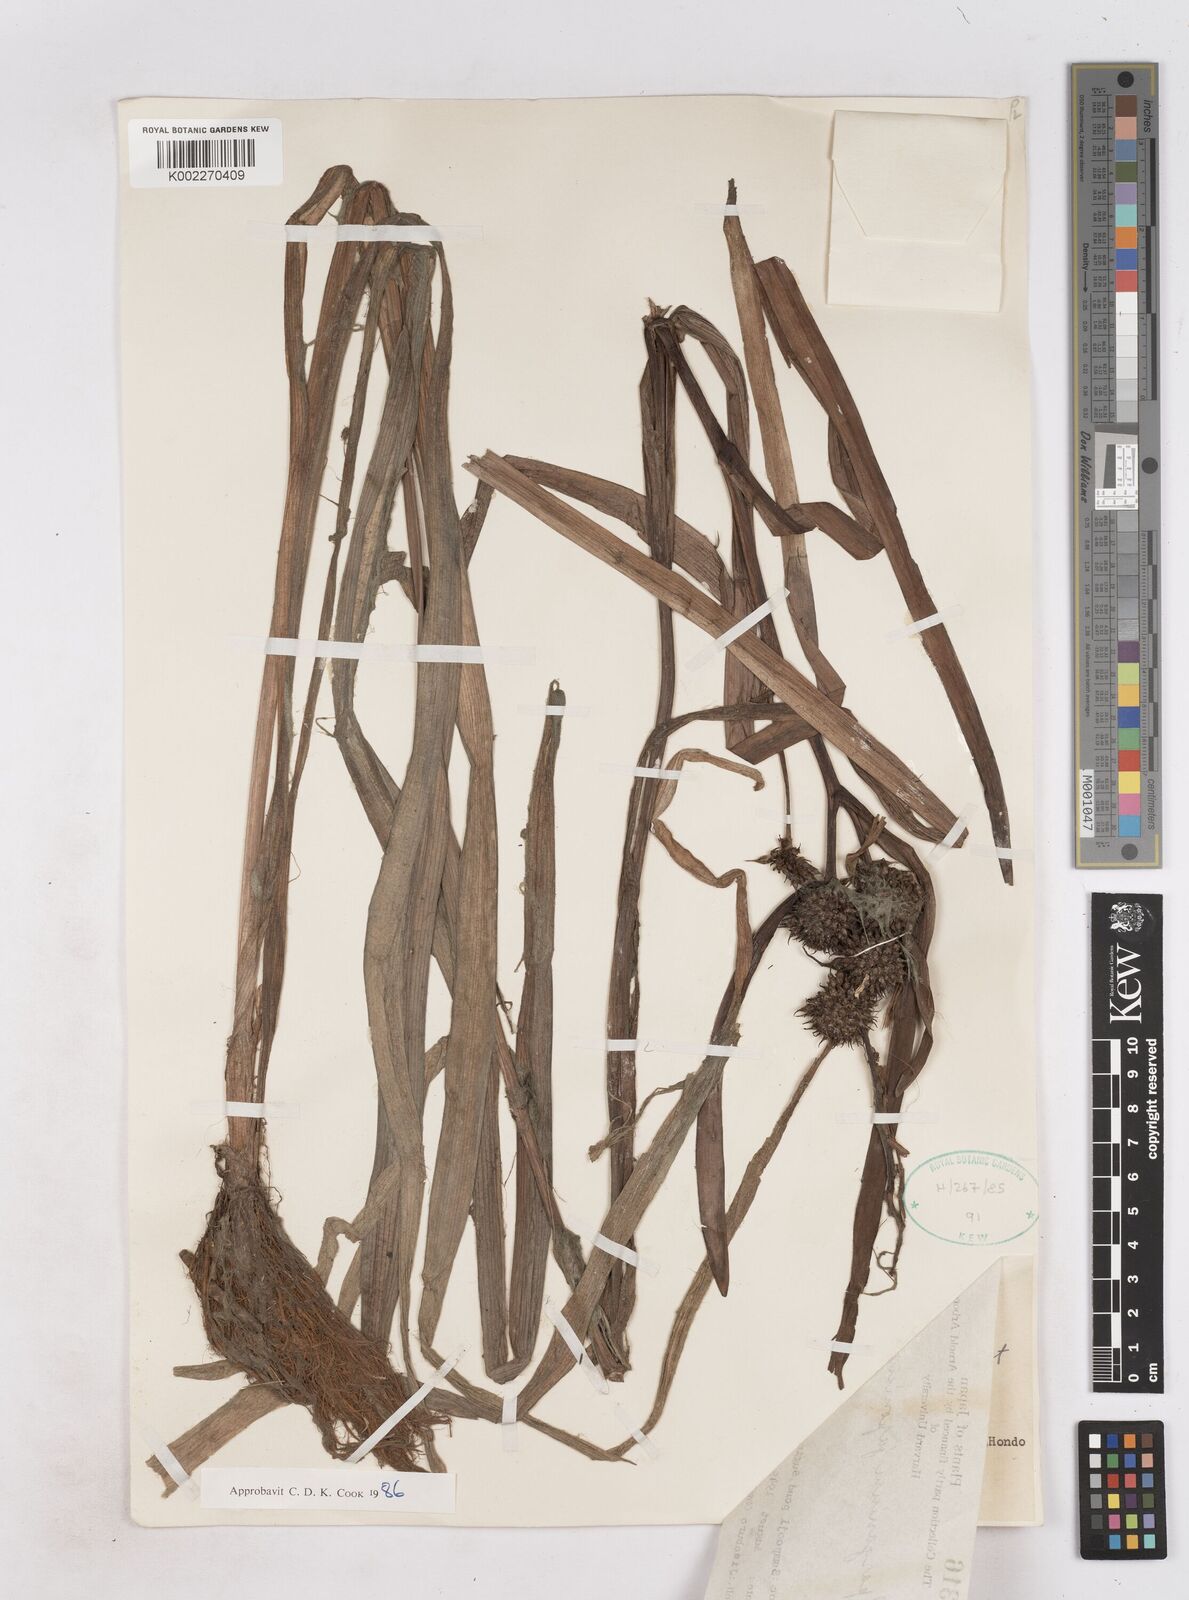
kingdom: Plantae
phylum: Tracheophyta
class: Liliopsida
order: Poales
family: Typhaceae
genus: Sparganium
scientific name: Sparganium japonicum
